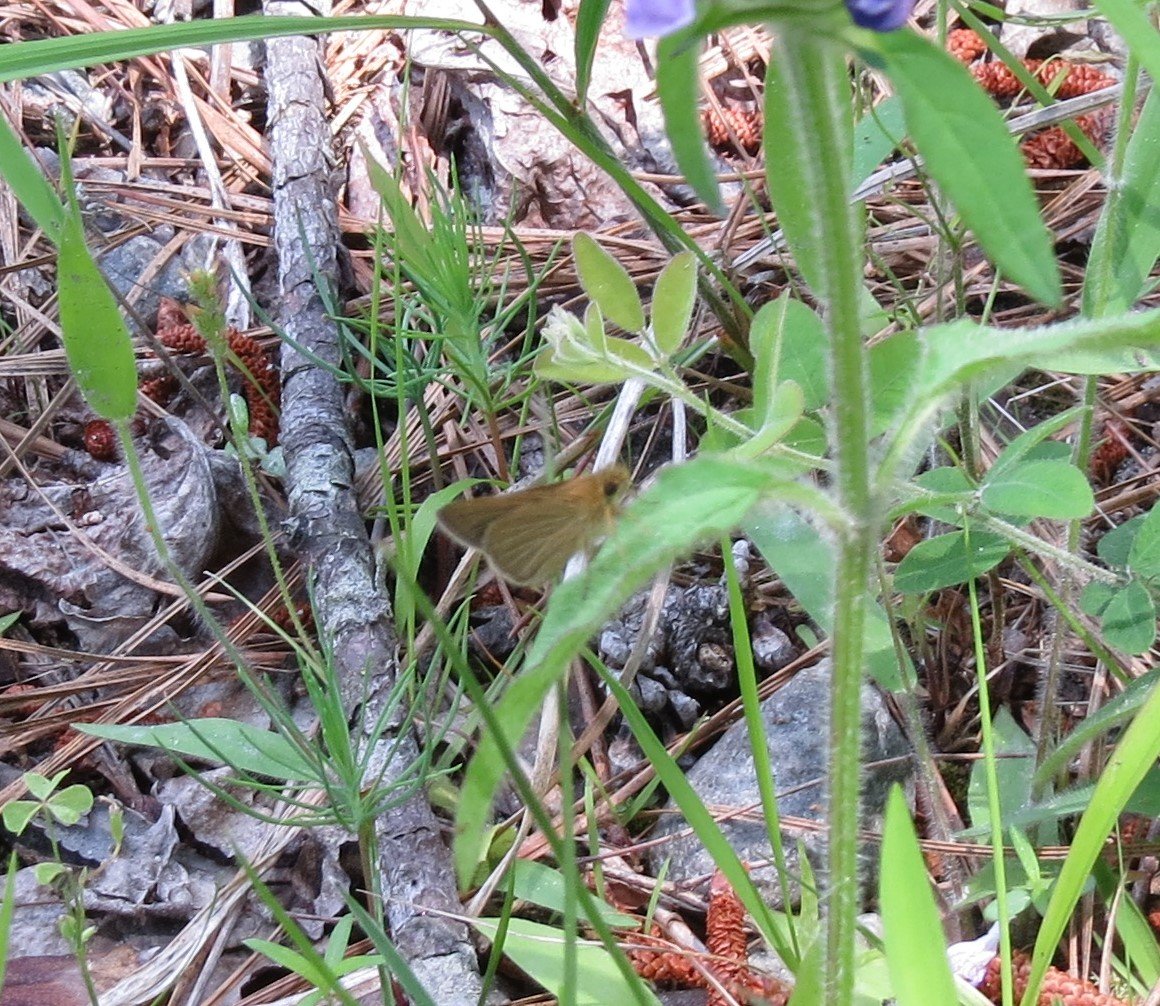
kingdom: Animalia
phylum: Arthropoda
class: Insecta
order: Lepidoptera
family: Hesperiidae
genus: Nastra
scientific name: Nastra lherminier
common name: Swarthy Skipper
